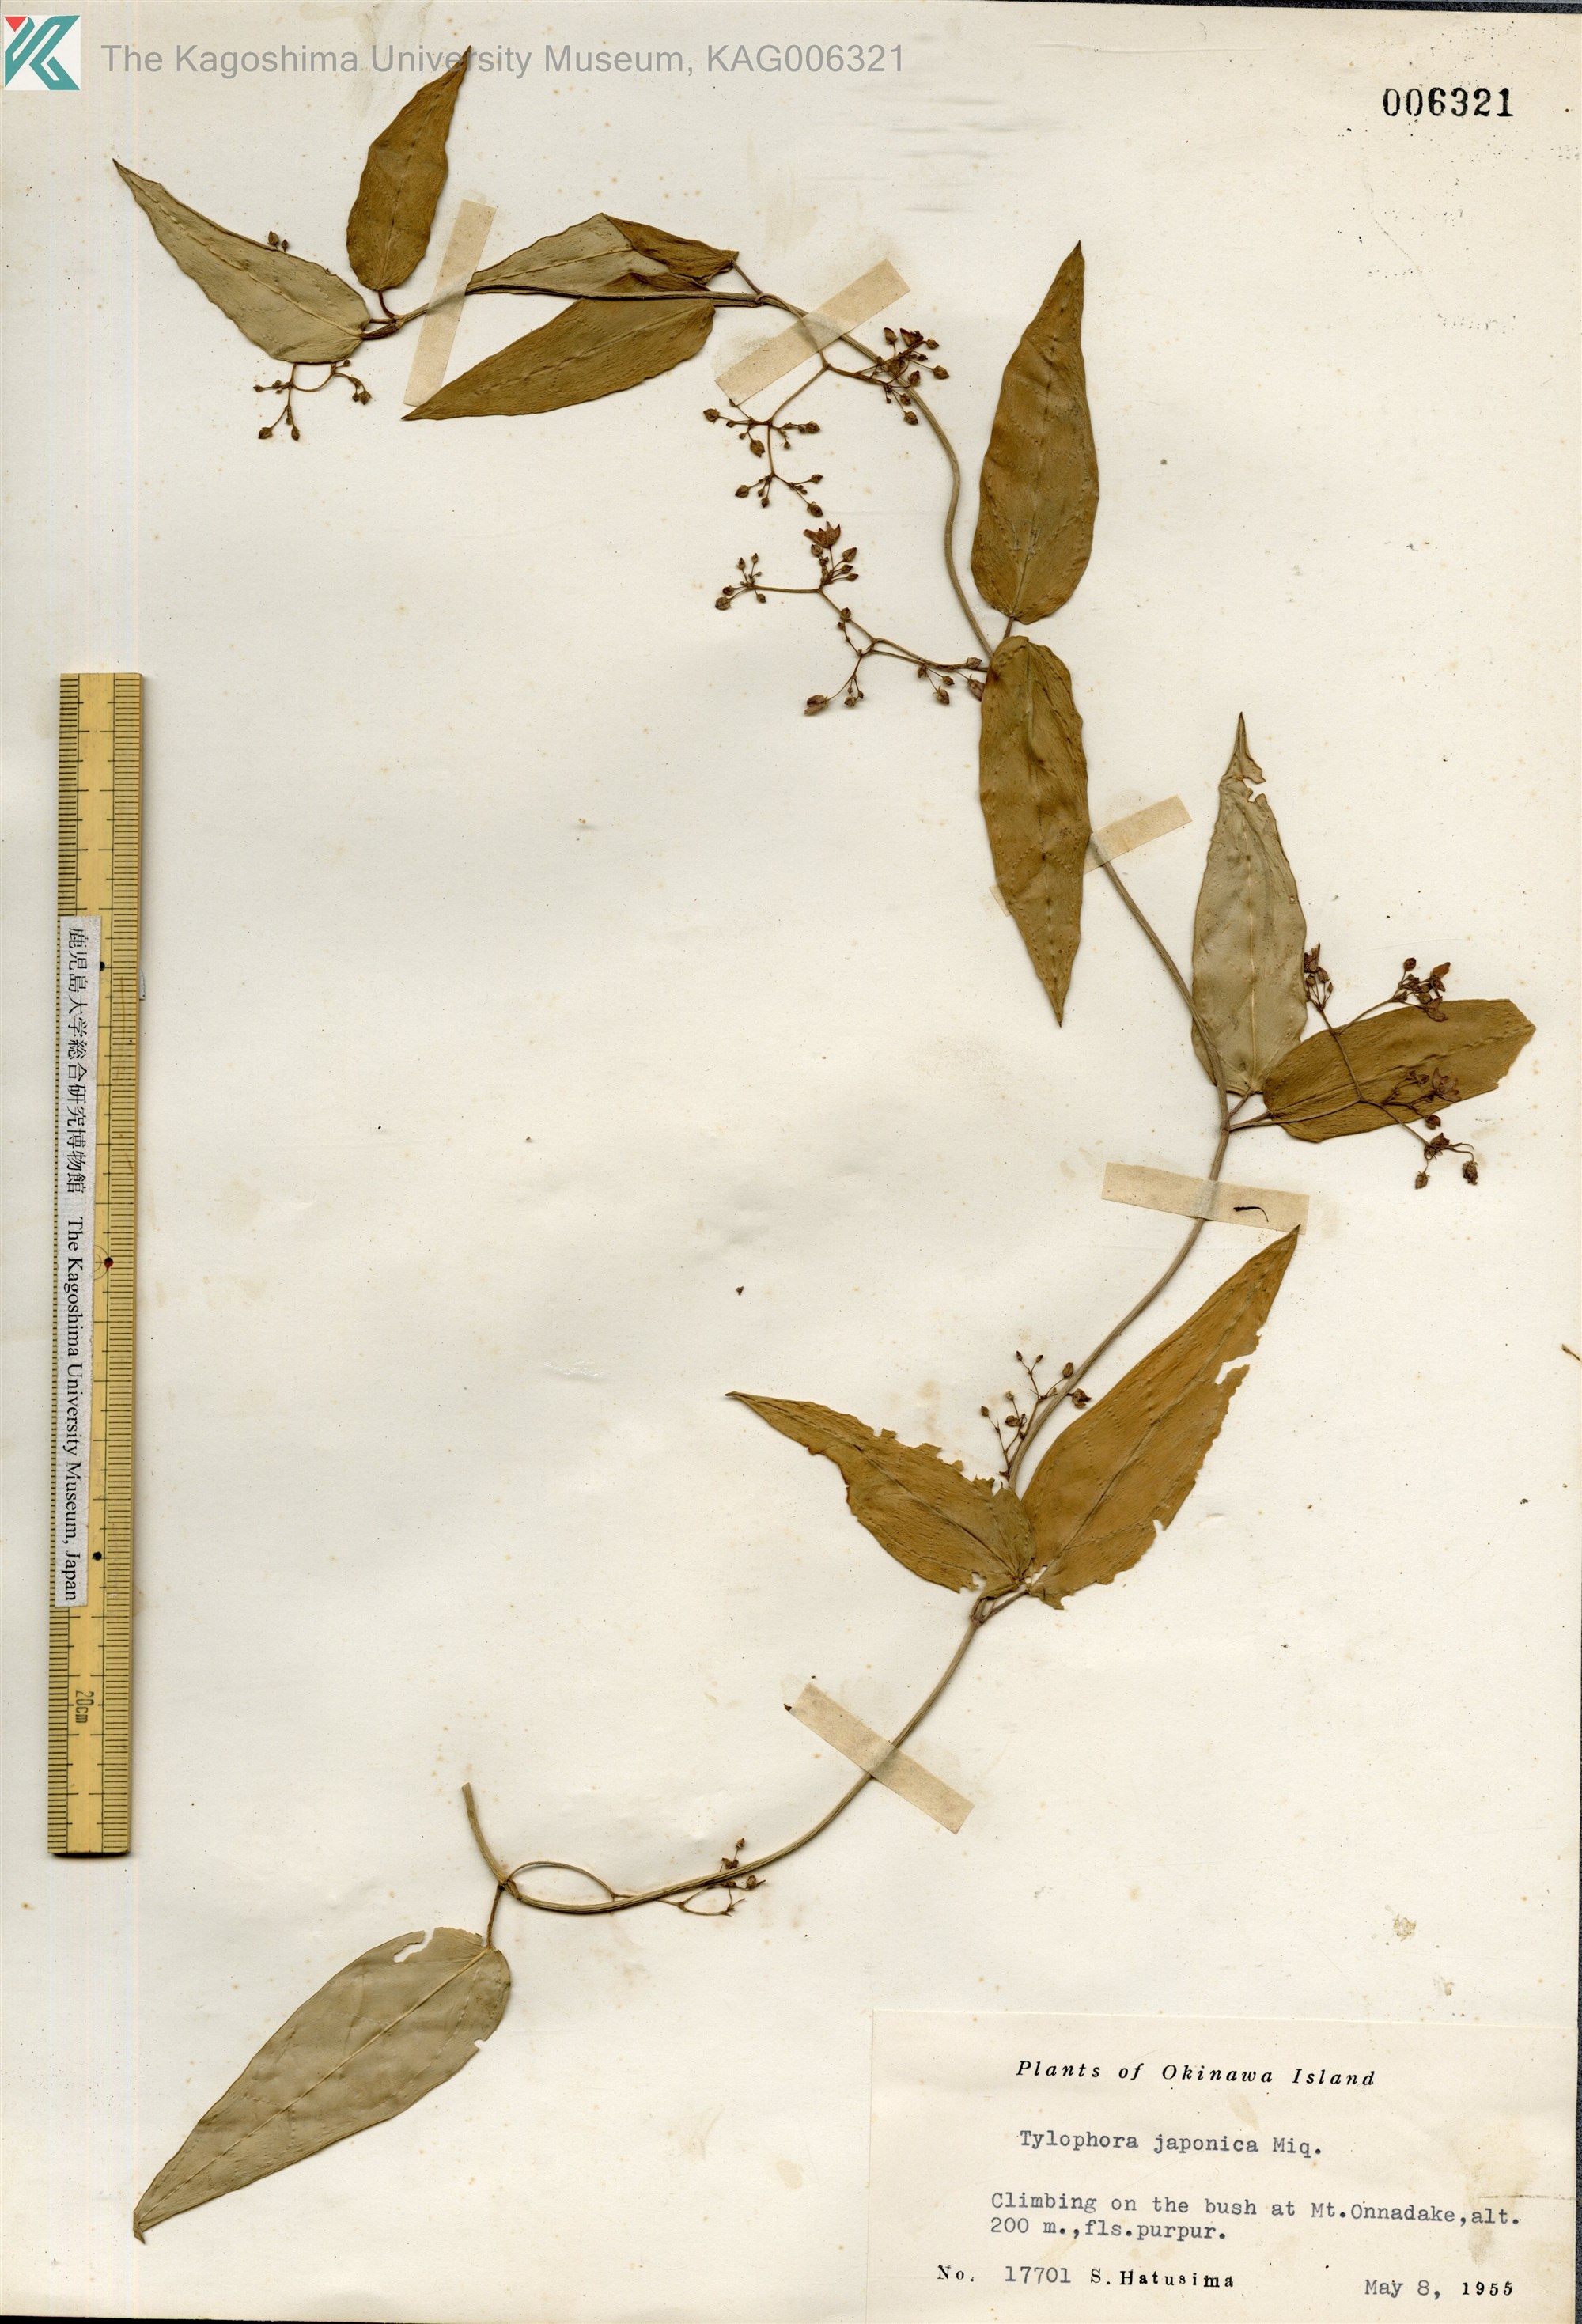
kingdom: Plantae
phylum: Tracheophyta
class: Magnoliopsida
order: Gentianales
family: Apocynaceae
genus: Vincetoxicum
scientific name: Vincetoxicum sieboldii
